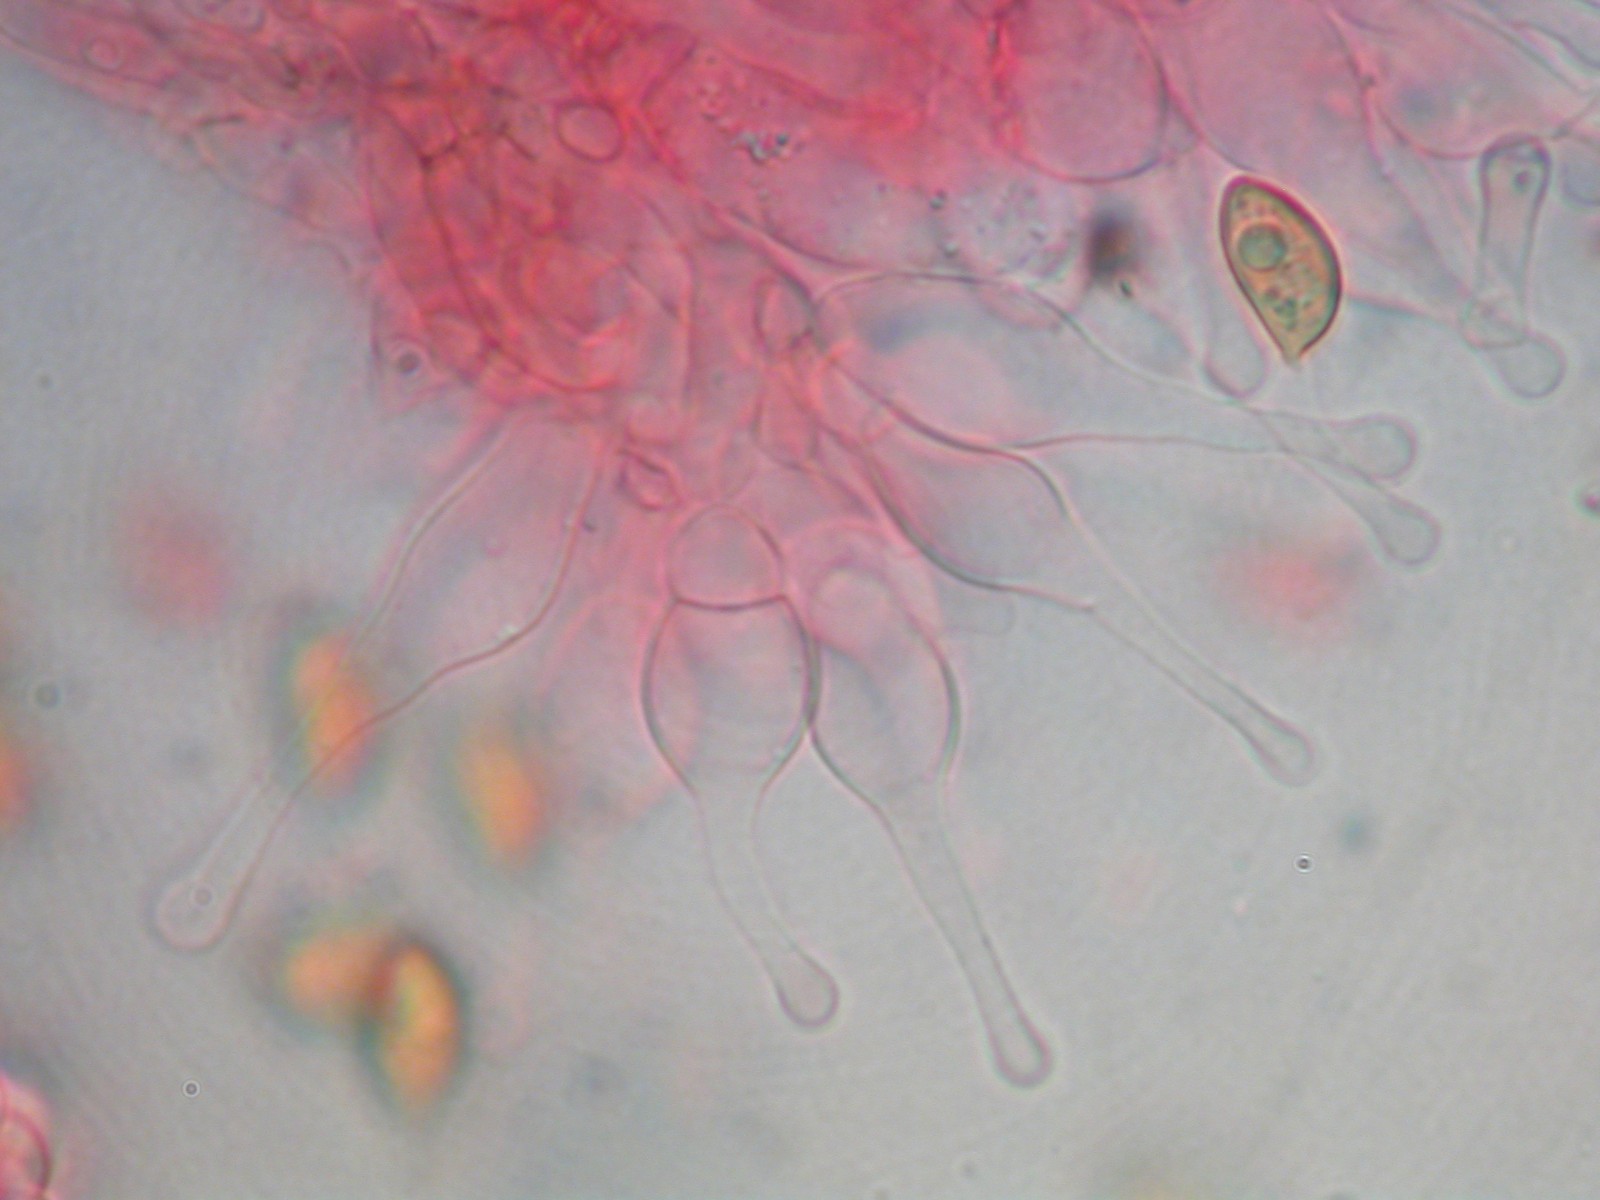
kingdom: Fungi
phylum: Basidiomycota
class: Agaricomycetes
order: Agaricales
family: Hymenogastraceae
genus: Galerina
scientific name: Galerina ampullaceocystis
